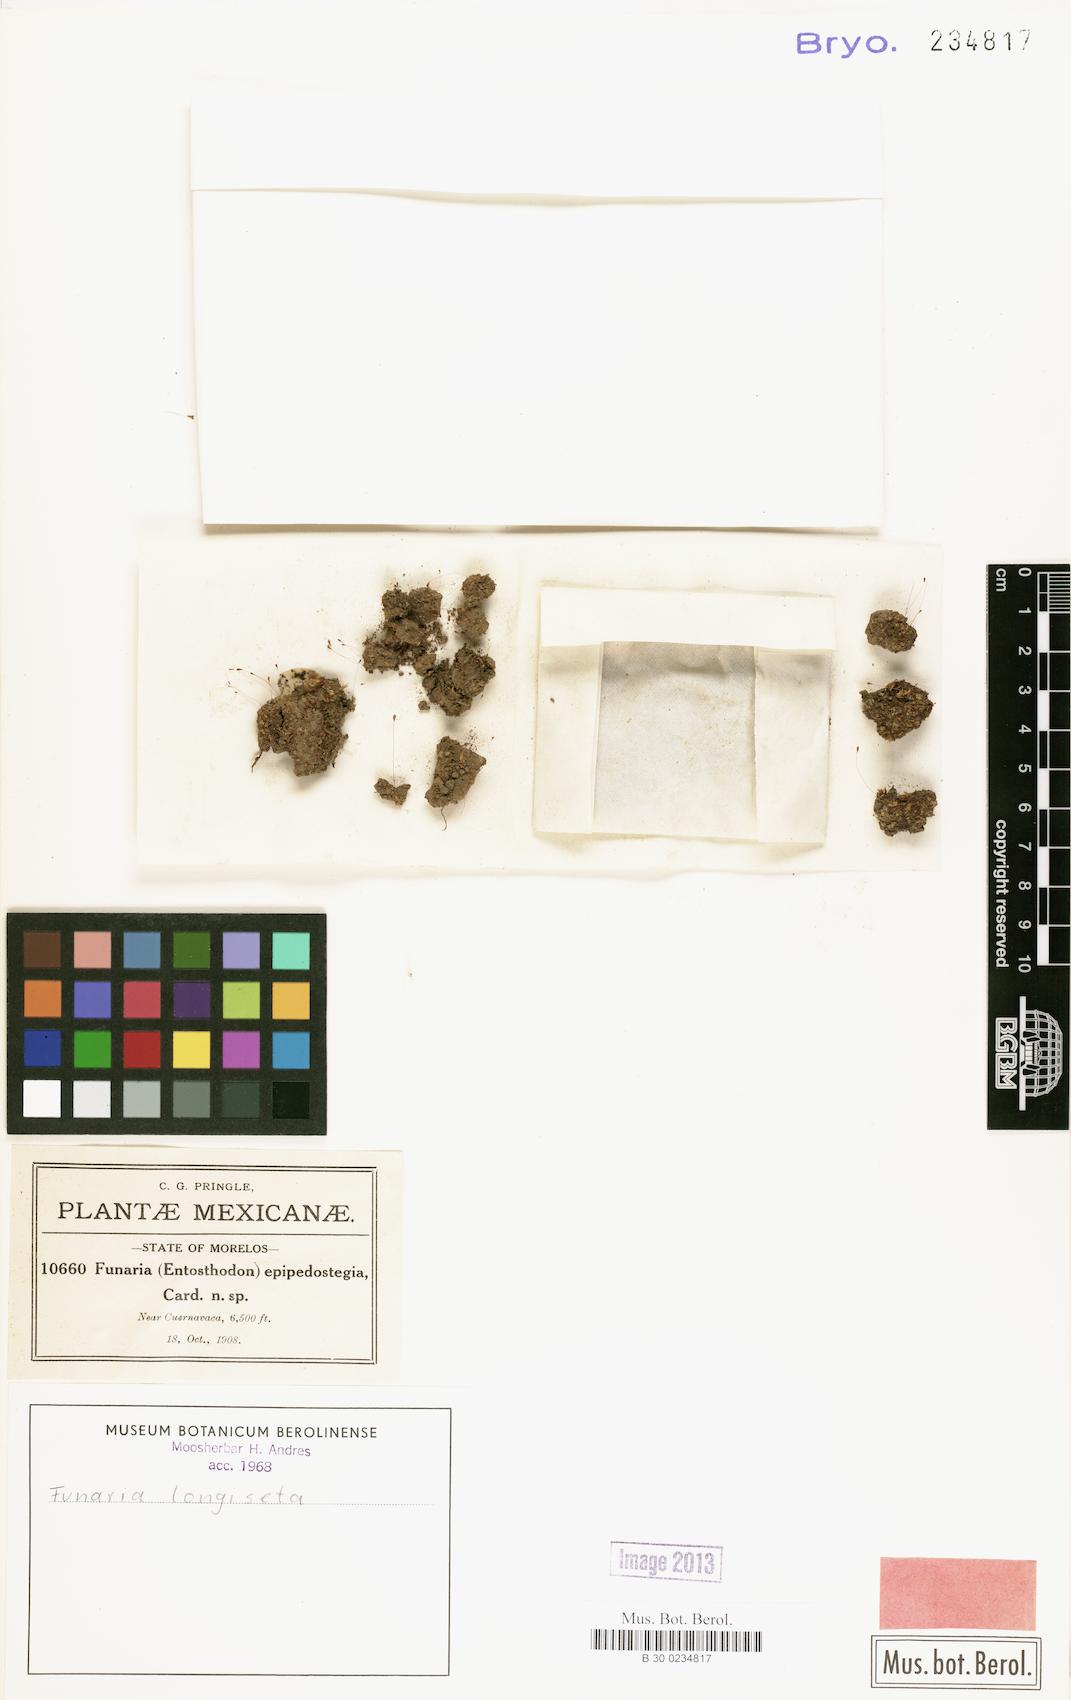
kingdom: Plantae
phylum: Bryophyta
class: Bryopsida
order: Funariales
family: Funariaceae
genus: Entosthodon
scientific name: Entosthodon obtusifolius
